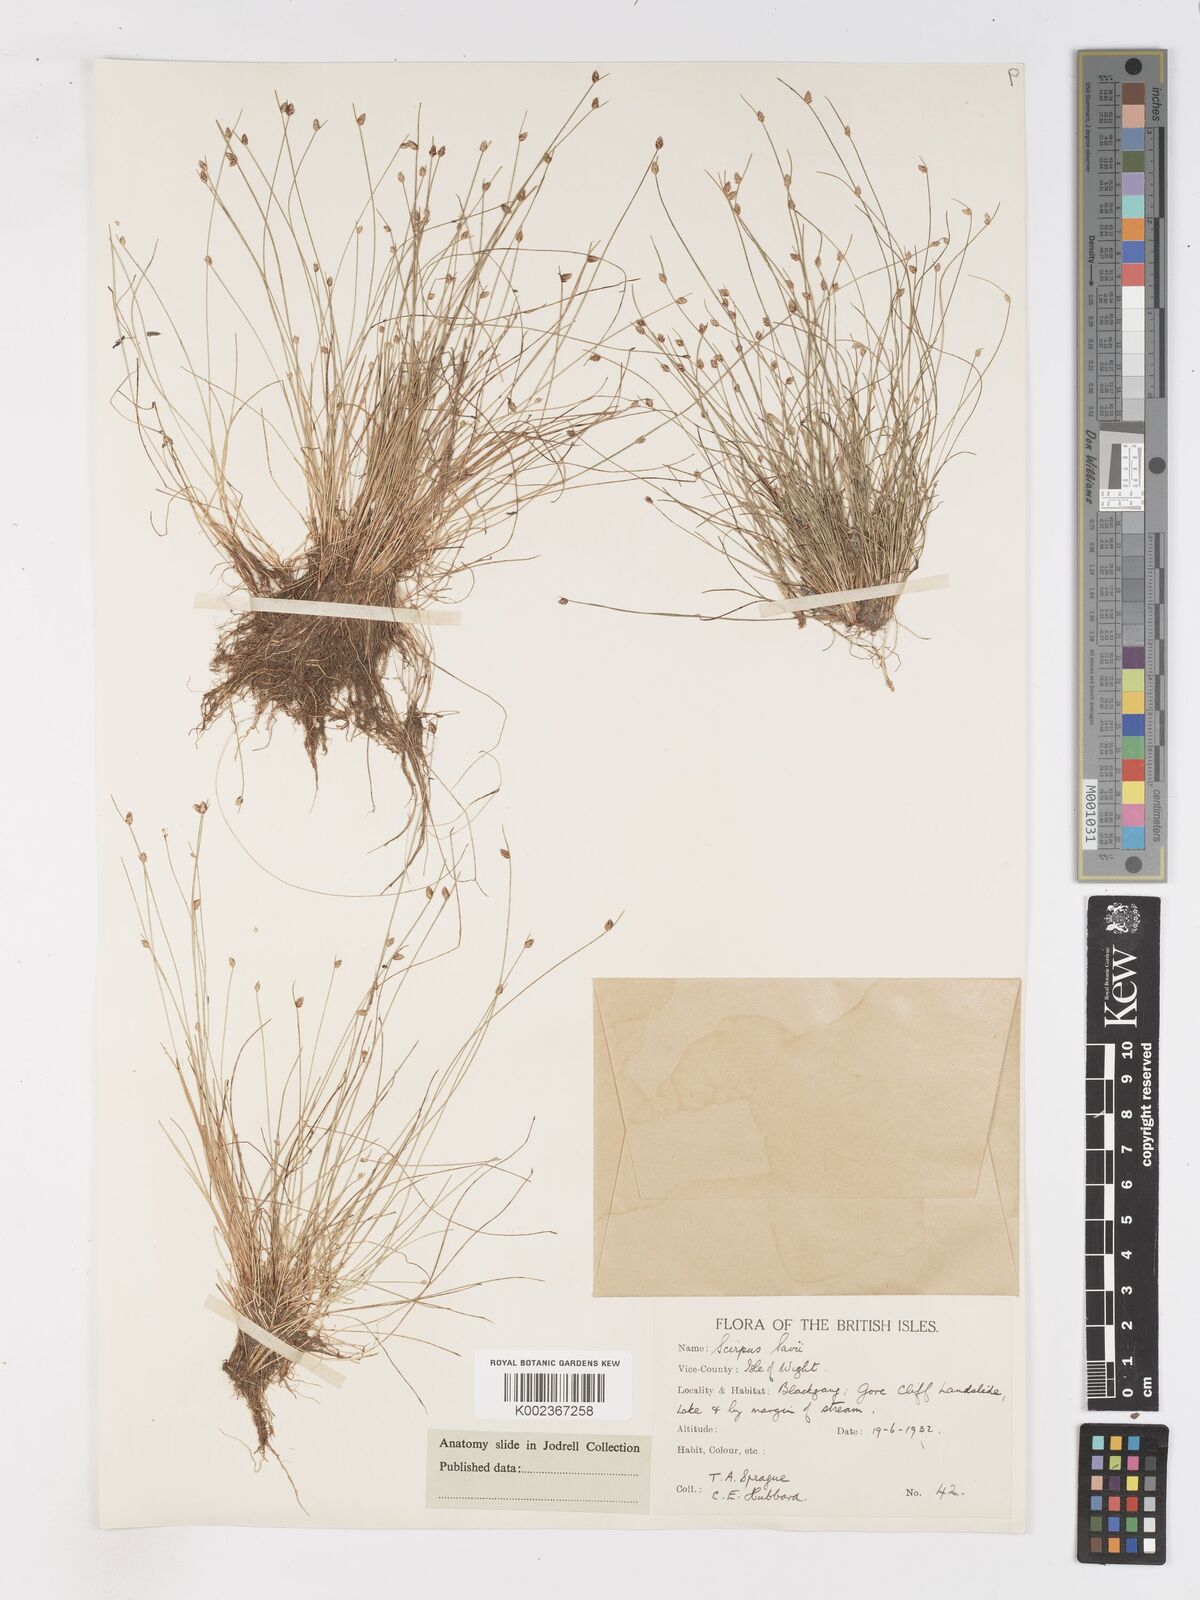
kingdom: Plantae
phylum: Tracheophyta
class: Liliopsida
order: Poales
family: Cyperaceae
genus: Isolepis
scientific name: Isolepis cernua
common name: Slender club-rush
